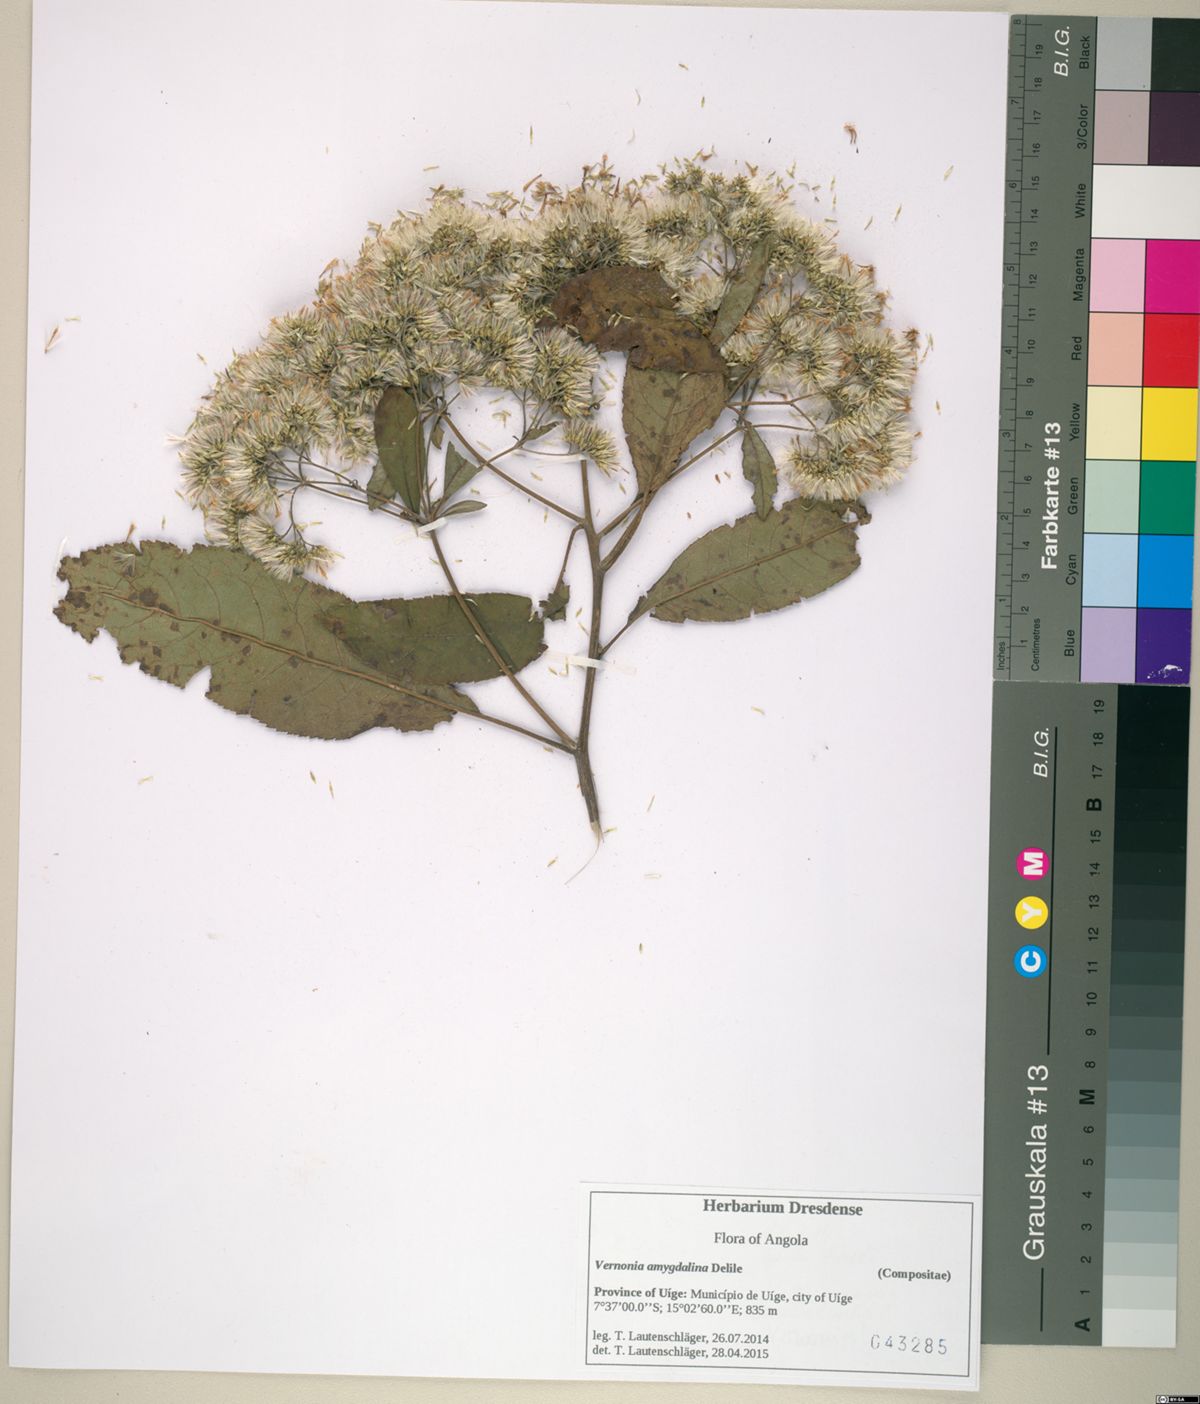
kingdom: Plantae
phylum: Tracheophyta
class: Magnoliopsida
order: Asterales
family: Asteraceae
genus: Gymnanthemum
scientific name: Gymnanthemum amygdalinum
